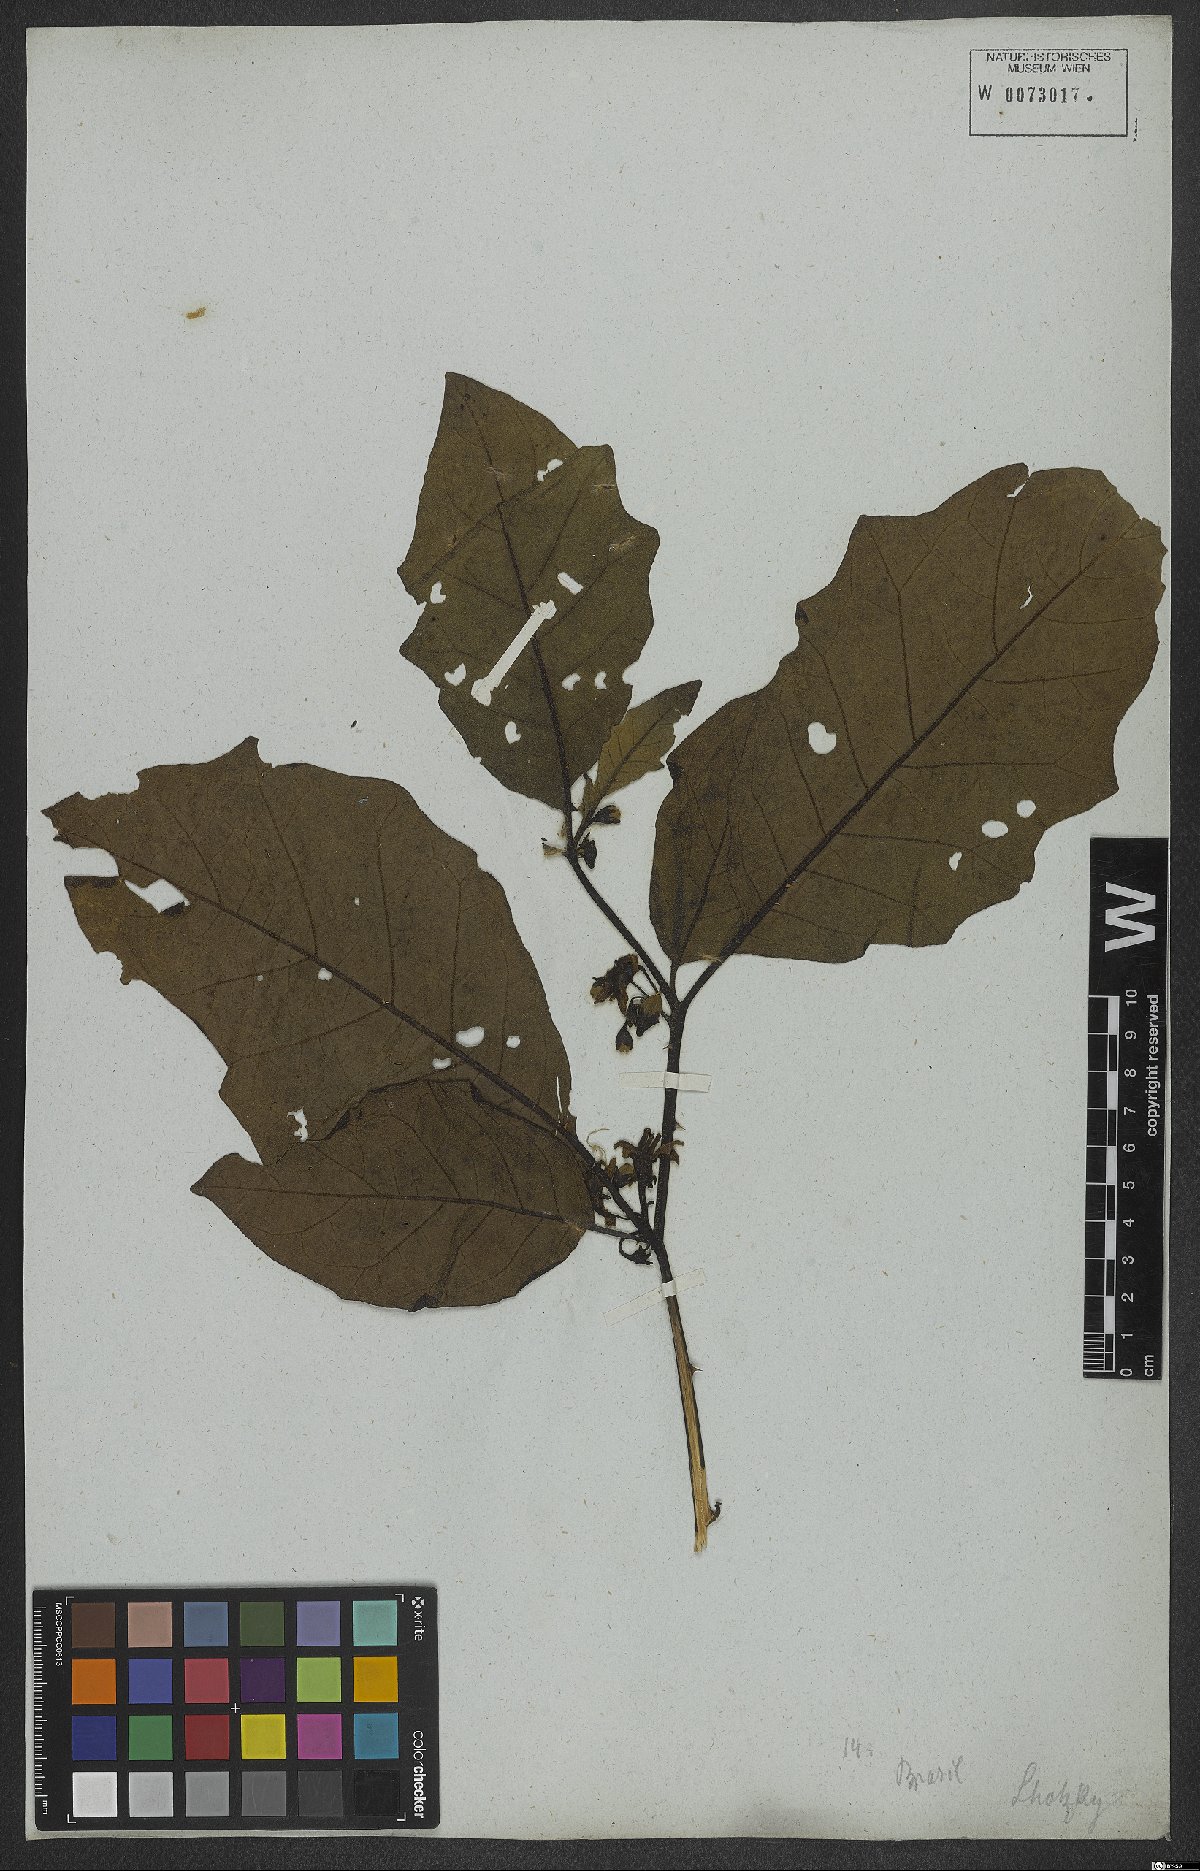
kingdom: Plantae
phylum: Tracheophyta
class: Magnoliopsida
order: Solanales
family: Solanaceae
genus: Solanum
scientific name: Solanum asterophorum
